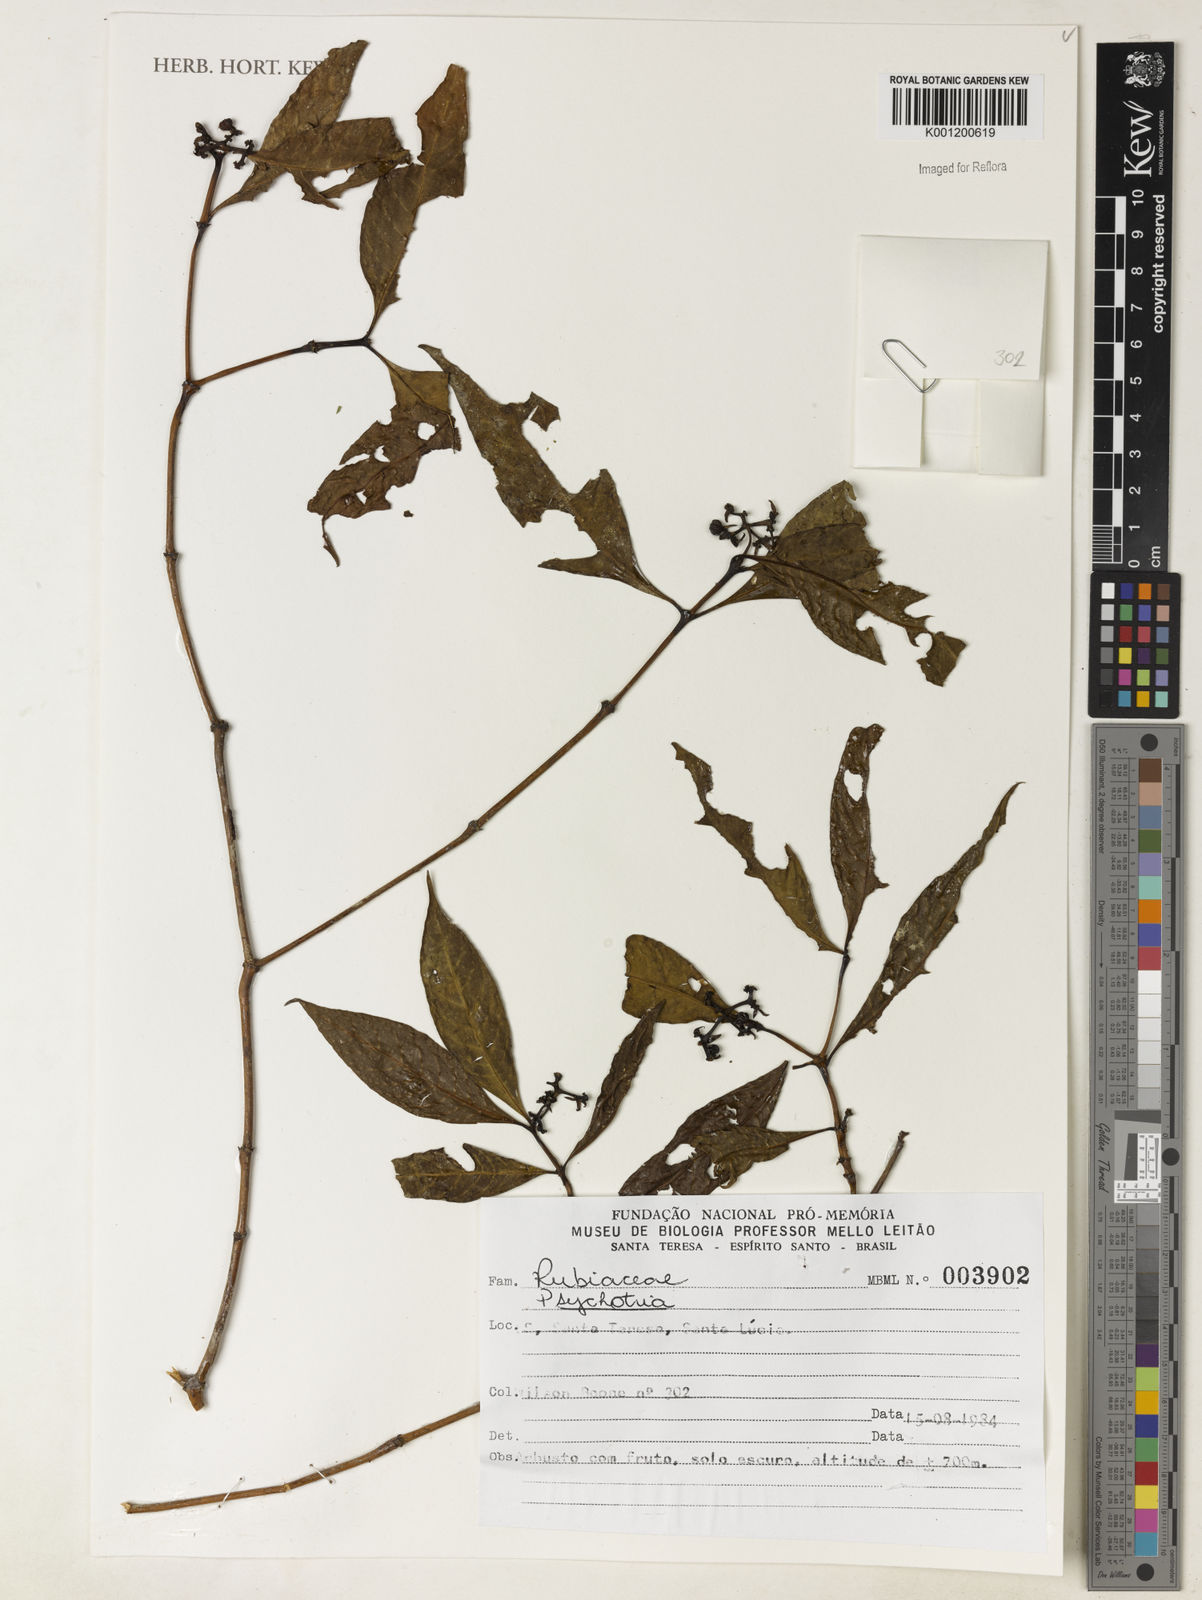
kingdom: Plantae
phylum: Tracheophyta
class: Magnoliopsida
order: Gentianales
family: Rubiaceae
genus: Psychotria
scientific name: Psychotria
